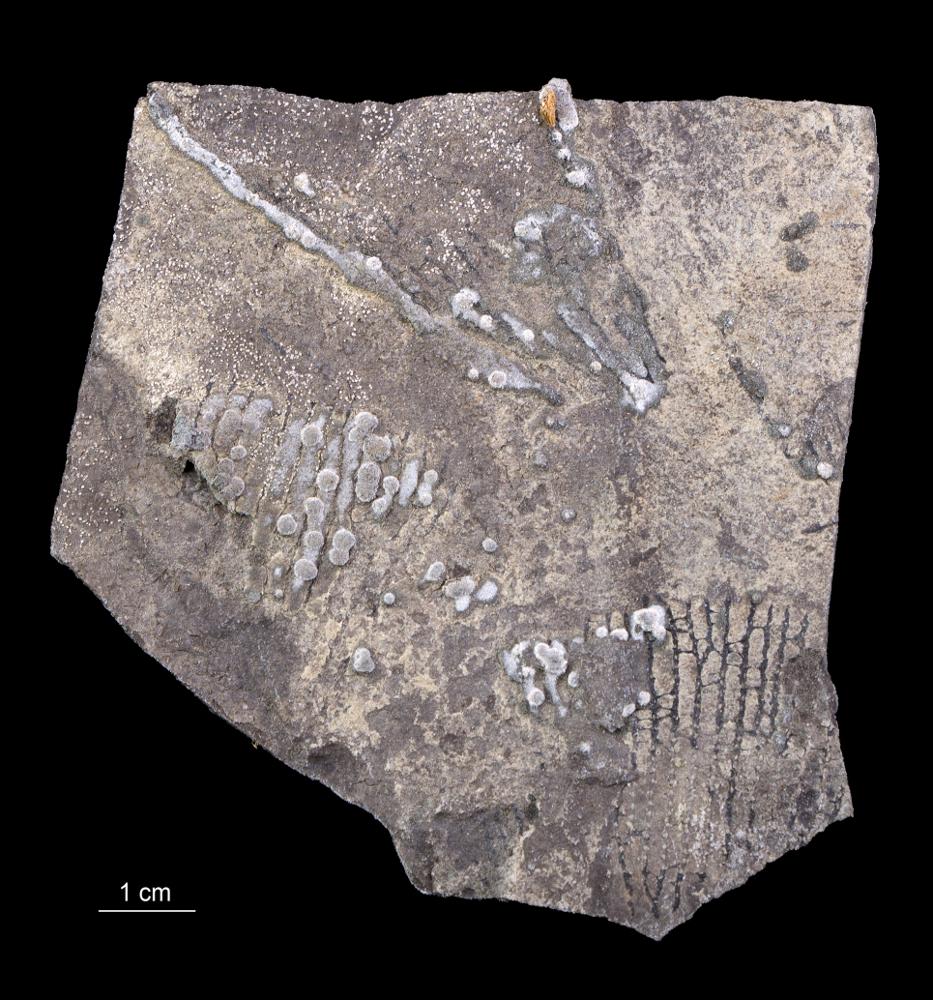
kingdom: Animalia
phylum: Hemichordata
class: Pterobranchia
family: Anisograptidae
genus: Rhabdinopora
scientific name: Rhabdinopora Gorgonia flabelliformis
